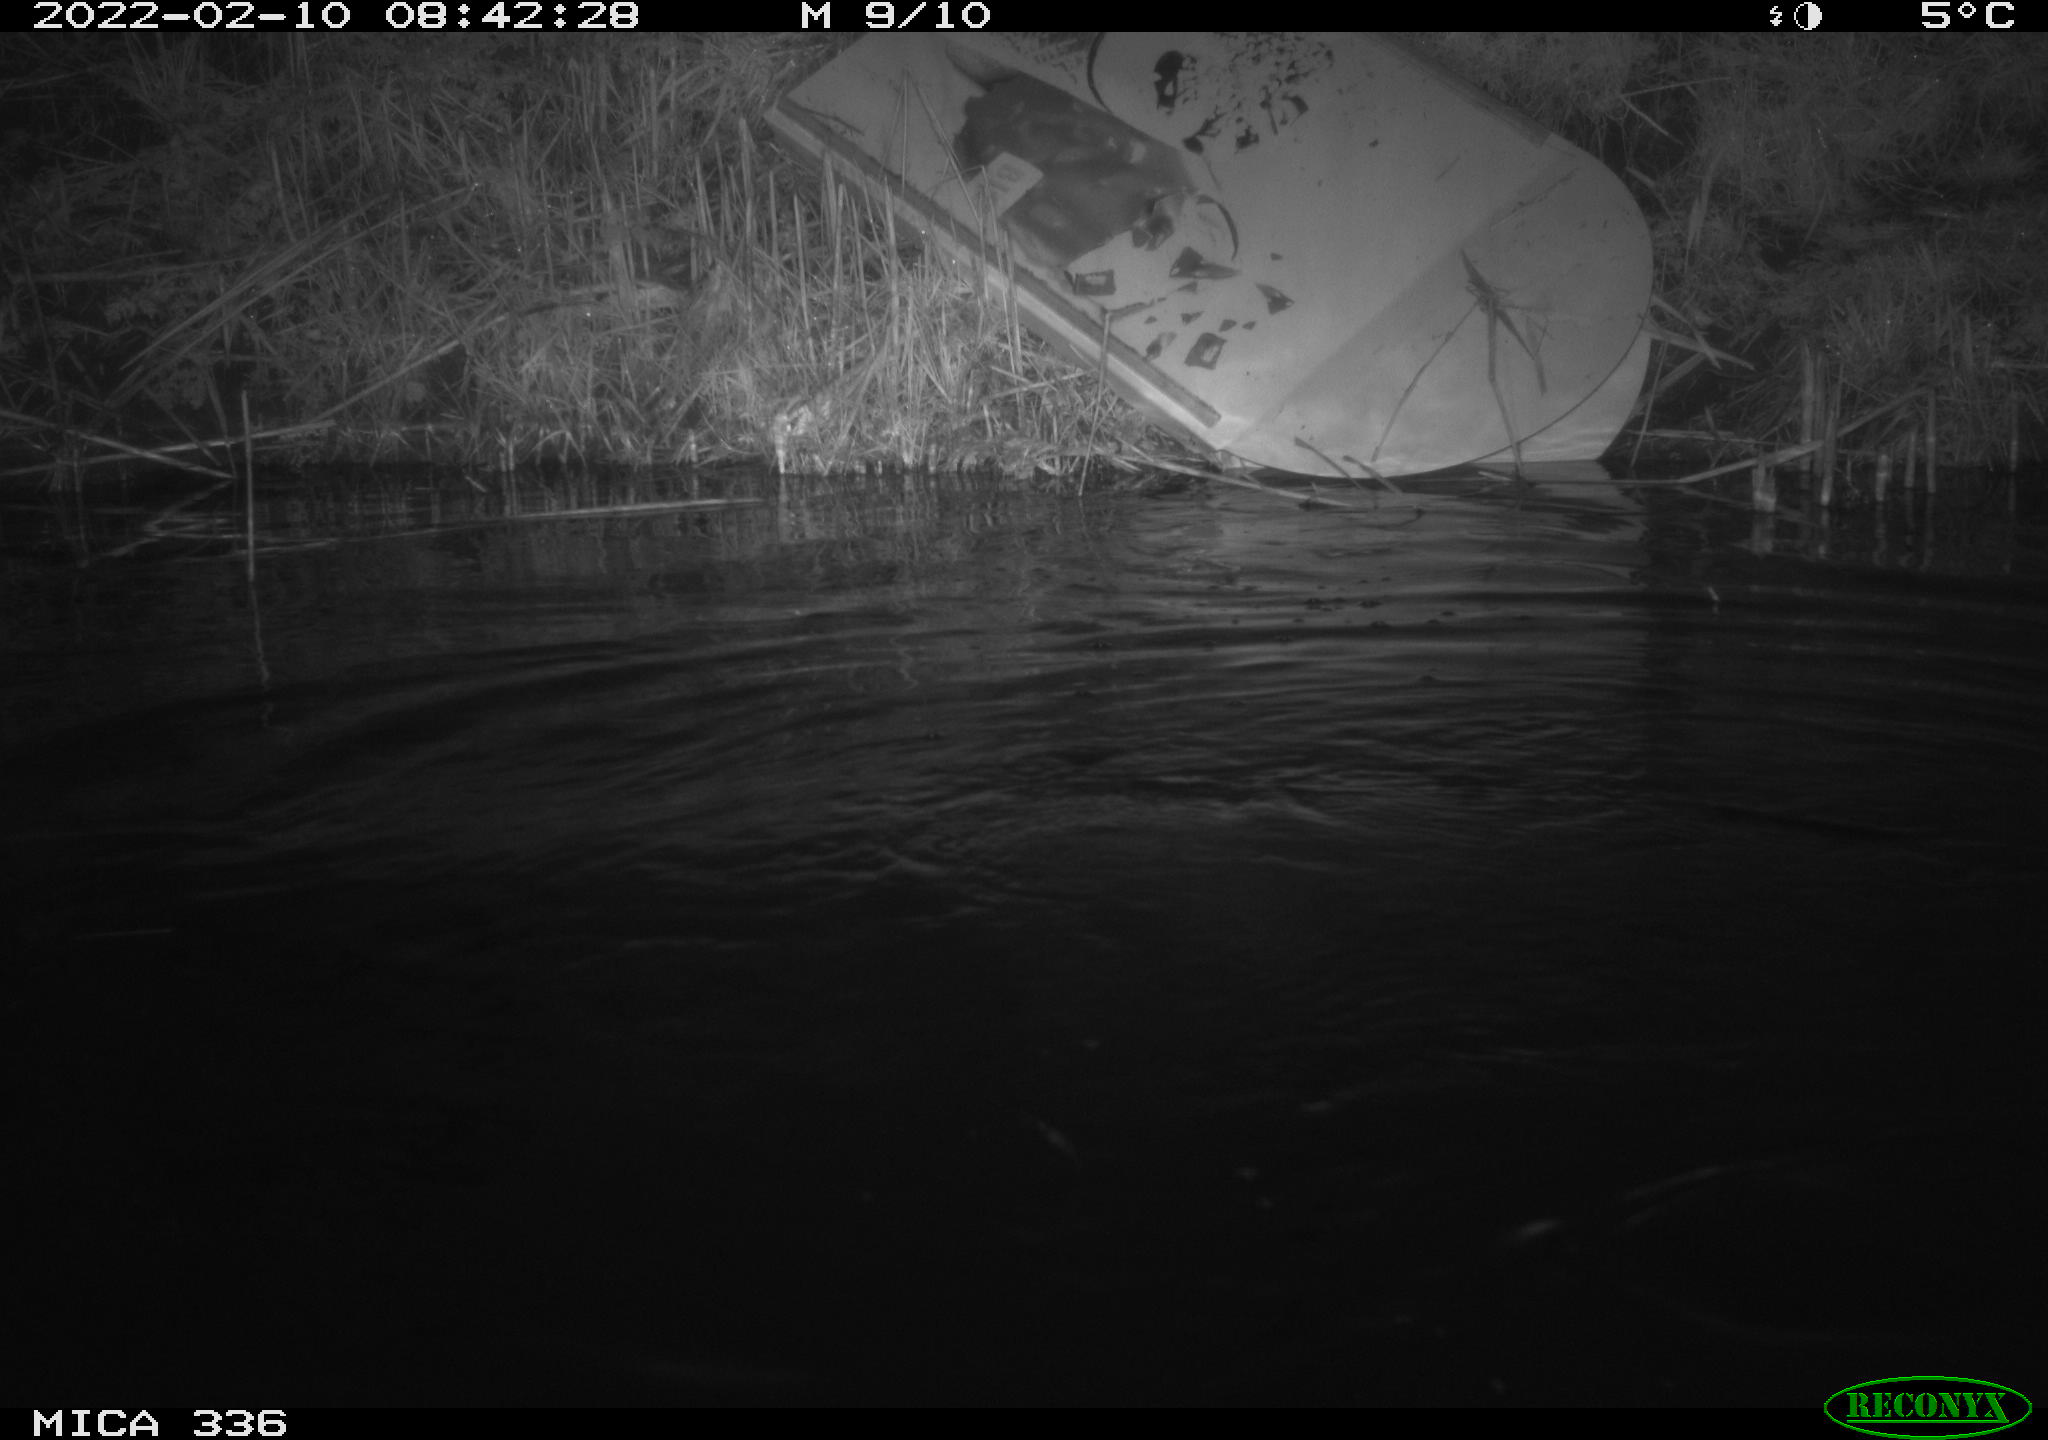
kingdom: Animalia
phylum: Chordata
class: Aves
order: Suliformes
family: Phalacrocoracidae
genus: Phalacrocorax
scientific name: Phalacrocorax carbo
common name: Great cormorant
